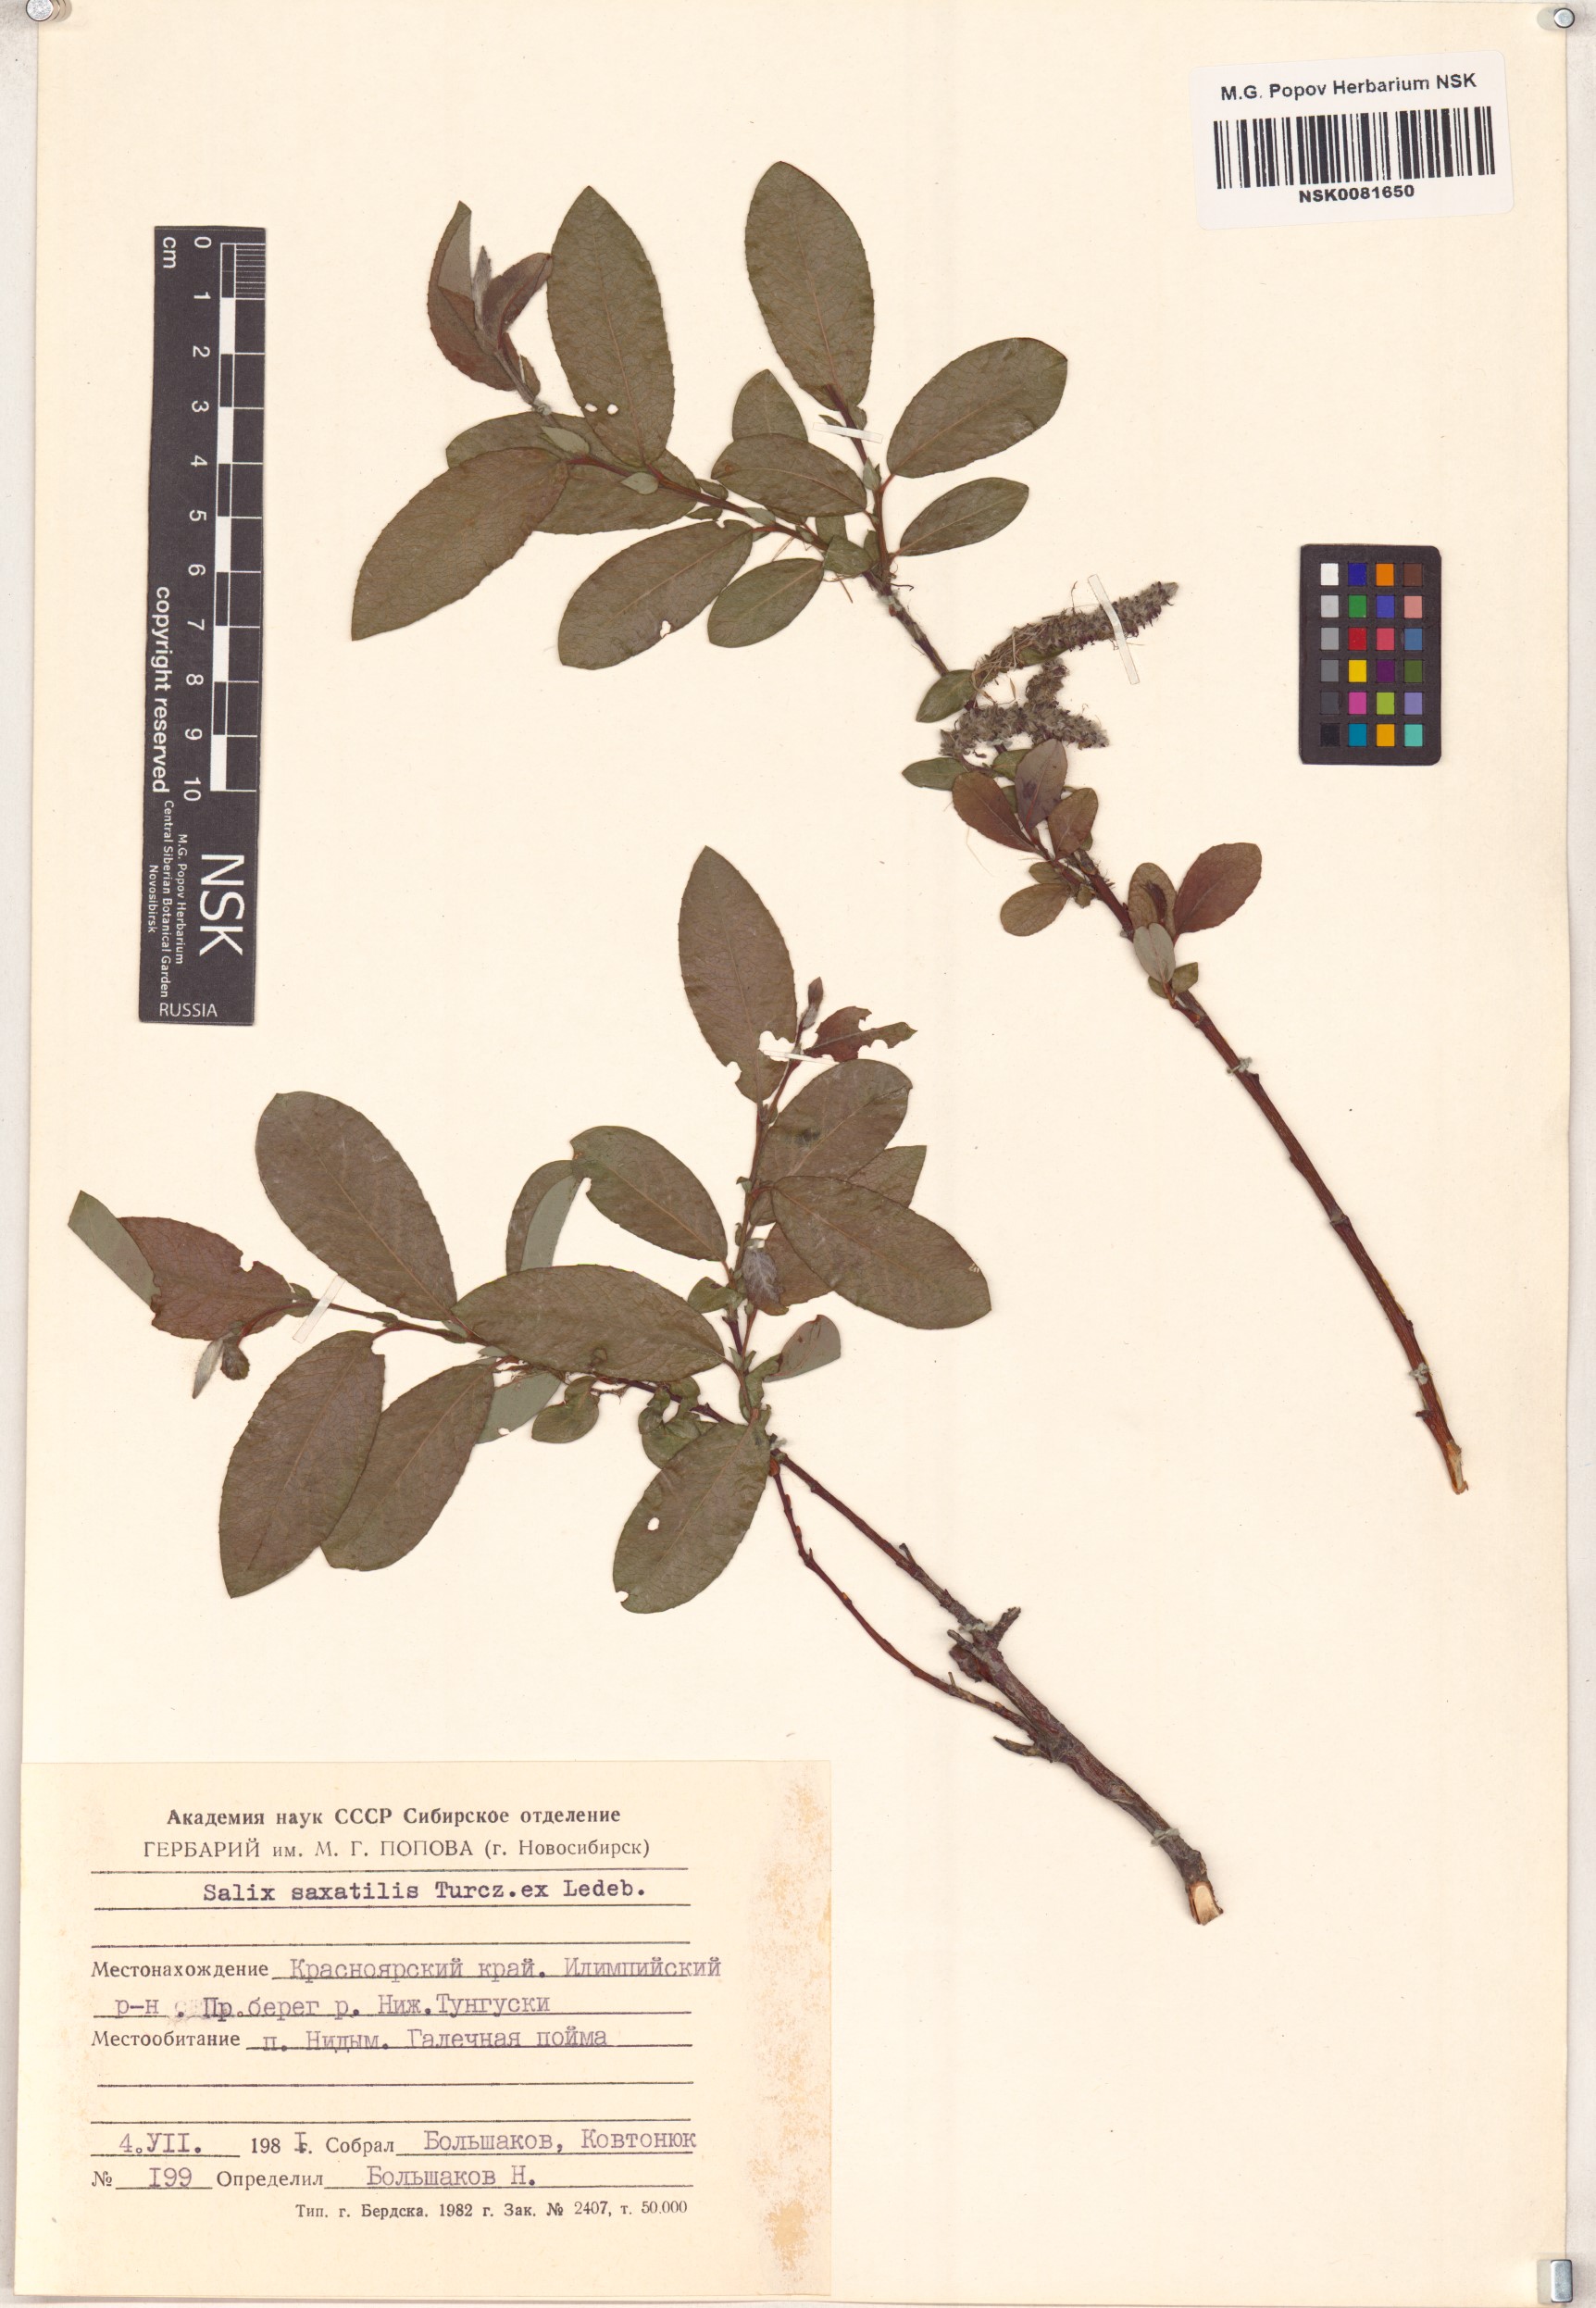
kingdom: Plantae
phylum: Tracheophyta
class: Magnoliopsida
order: Malpighiales
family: Salicaceae
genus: Salix
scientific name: Salix saxatilis
